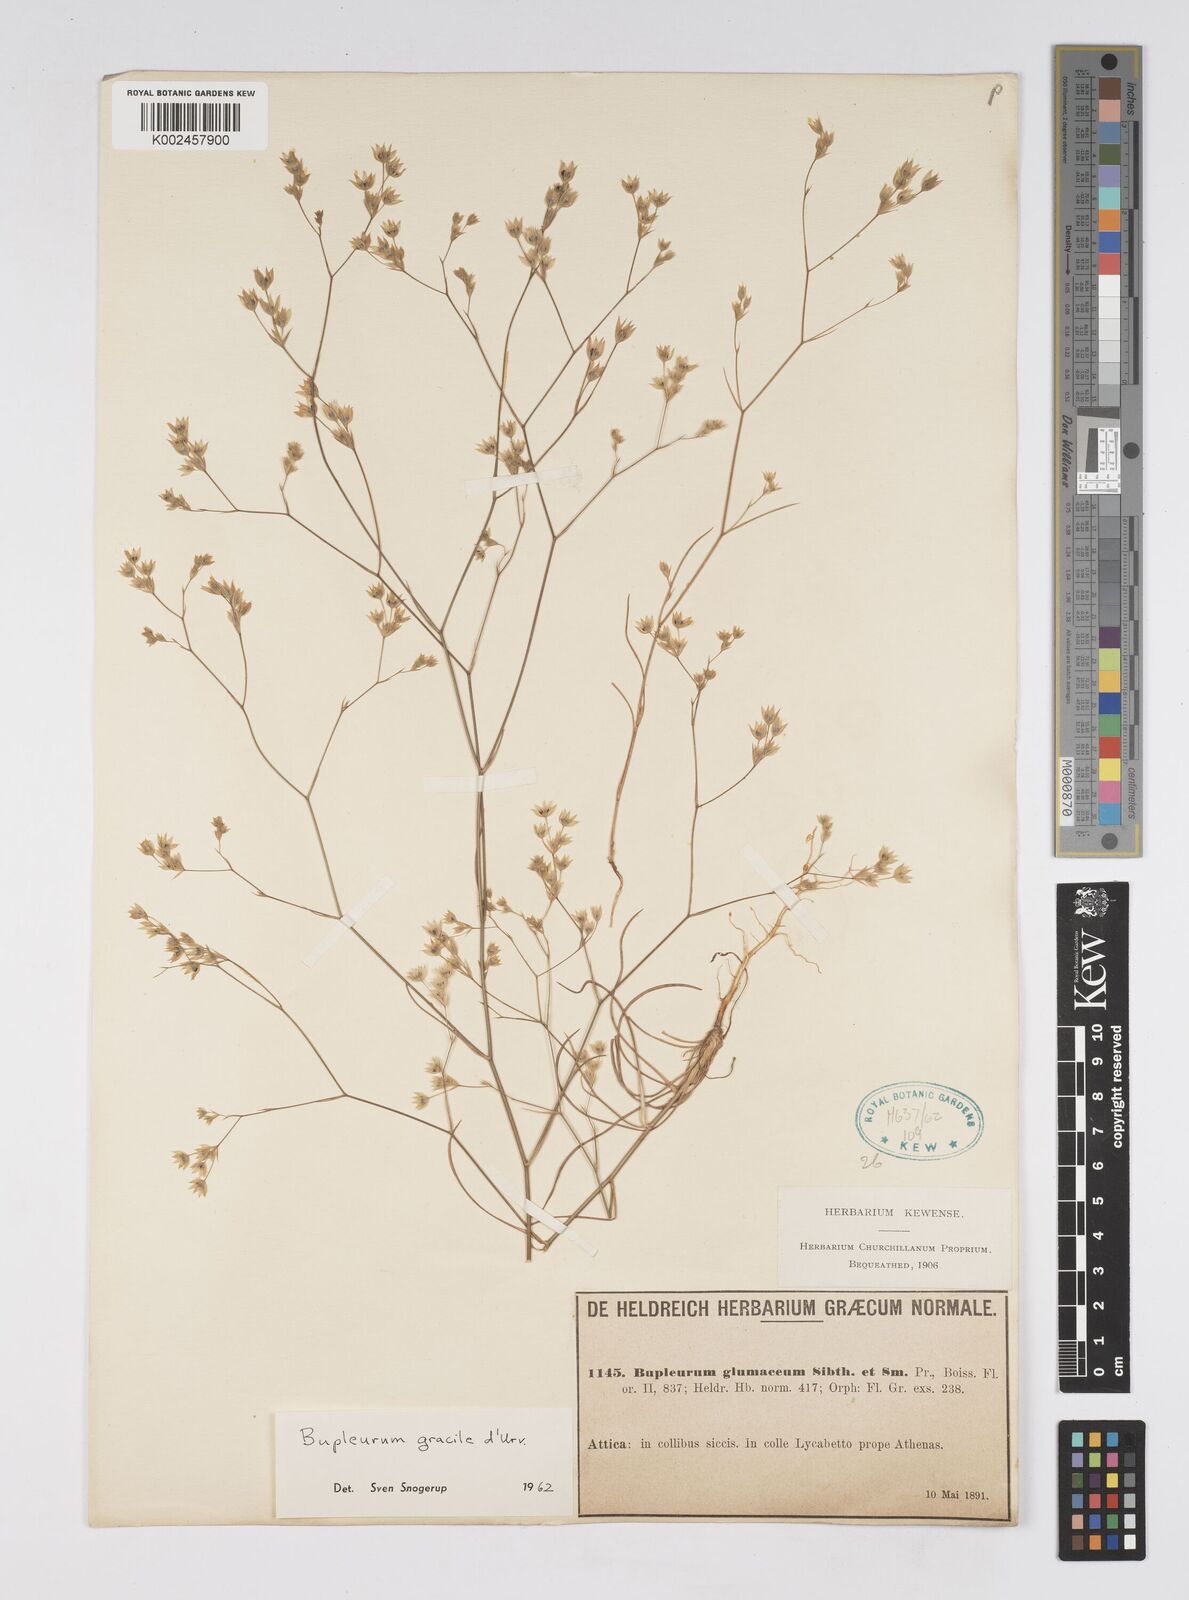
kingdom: Plantae
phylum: Tracheophyta
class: Magnoliopsida
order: Apiales
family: Apiaceae
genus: Bupleurum
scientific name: Bupleurum gracile
